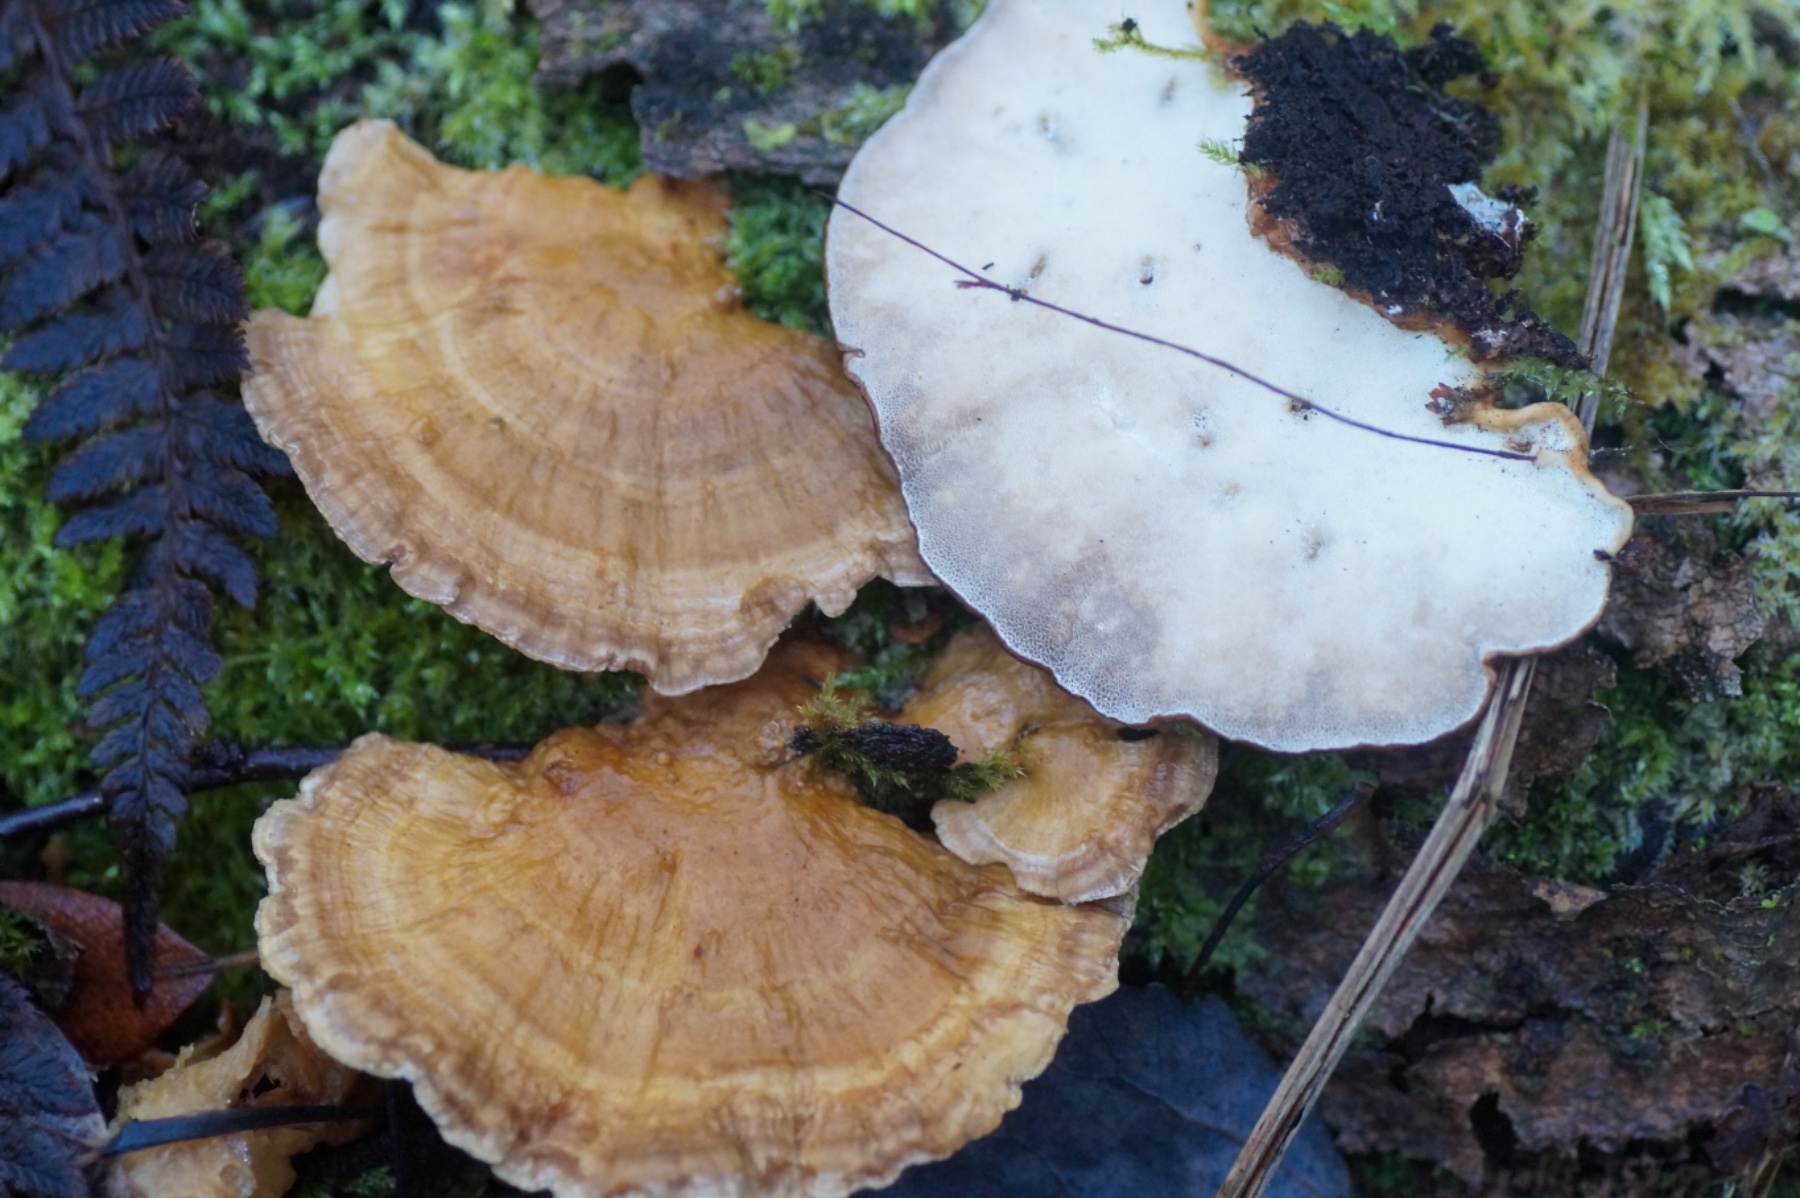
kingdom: Fungi
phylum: Basidiomycota
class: Agaricomycetes
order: Polyporales
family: Polyporaceae
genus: Trametes
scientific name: Trametes ochracea
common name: bæltet læderporesvamp
